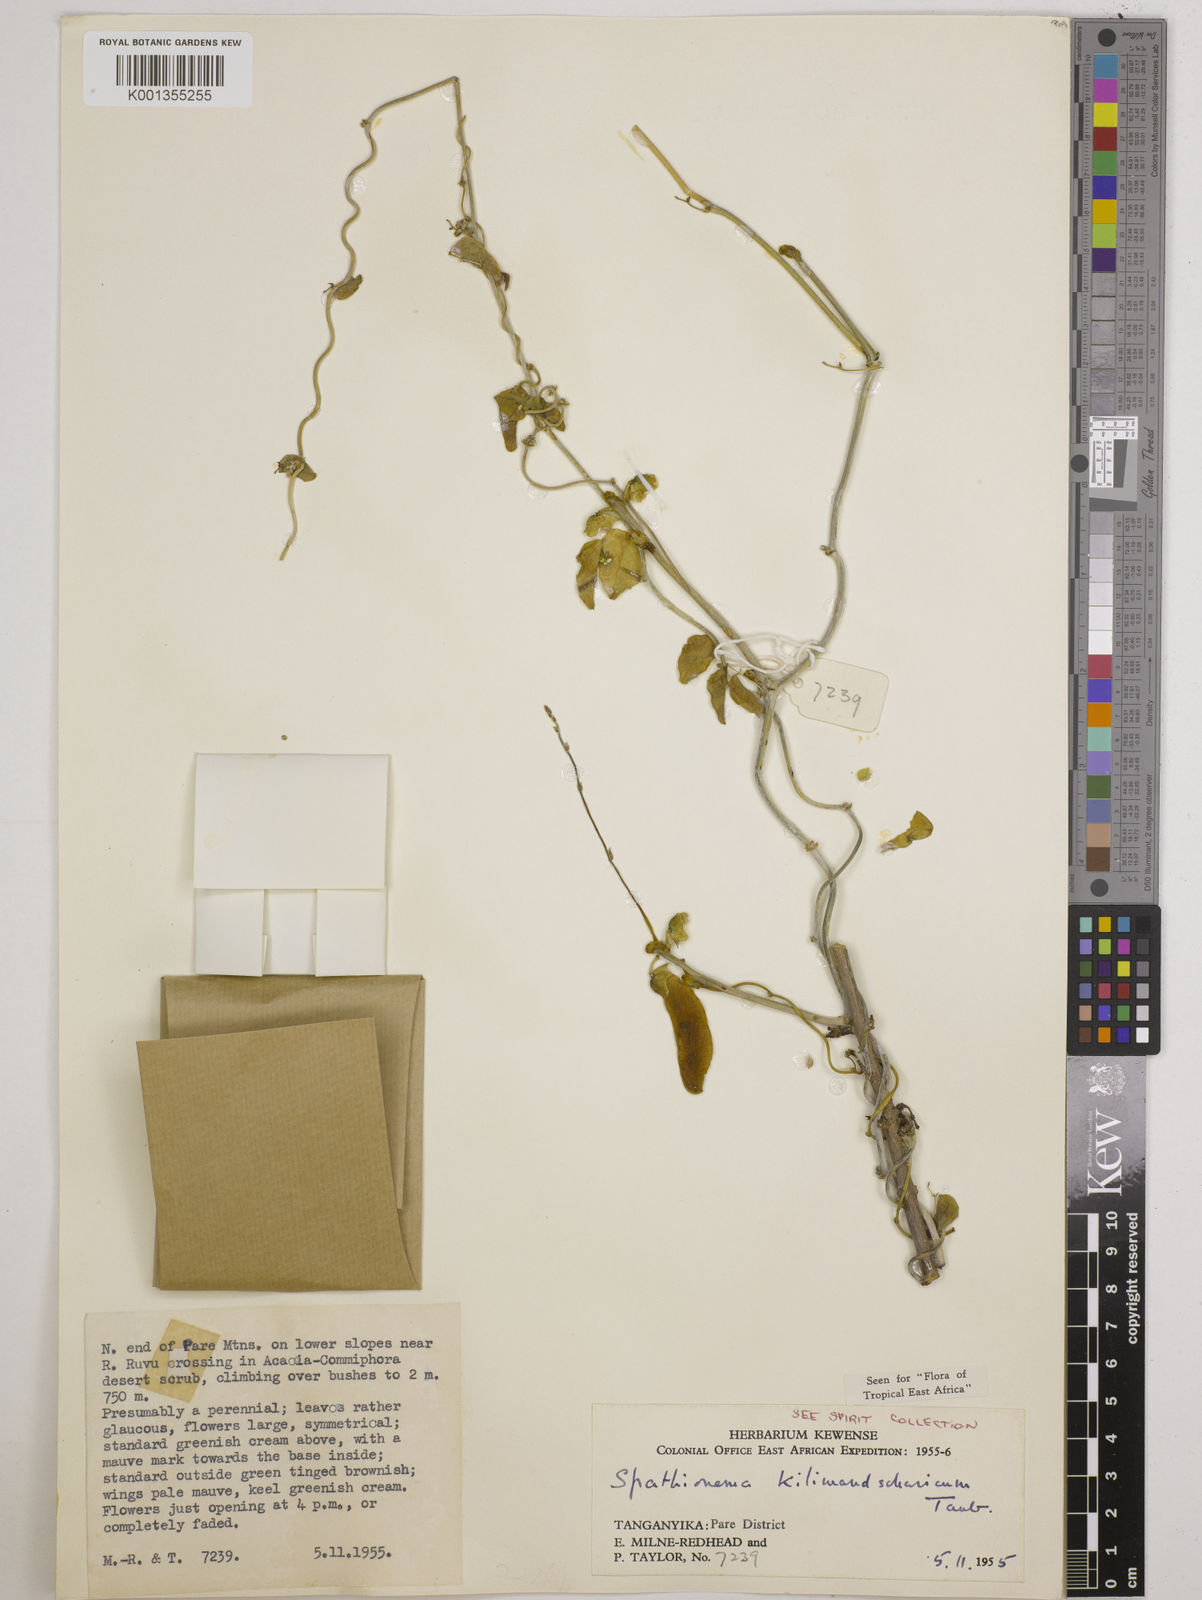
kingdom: Plantae
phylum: Tracheophyta
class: Magnoliopsida
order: Fabales
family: Fabaceae
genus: Spathionema
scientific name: Spathionema kilimandscharicum
